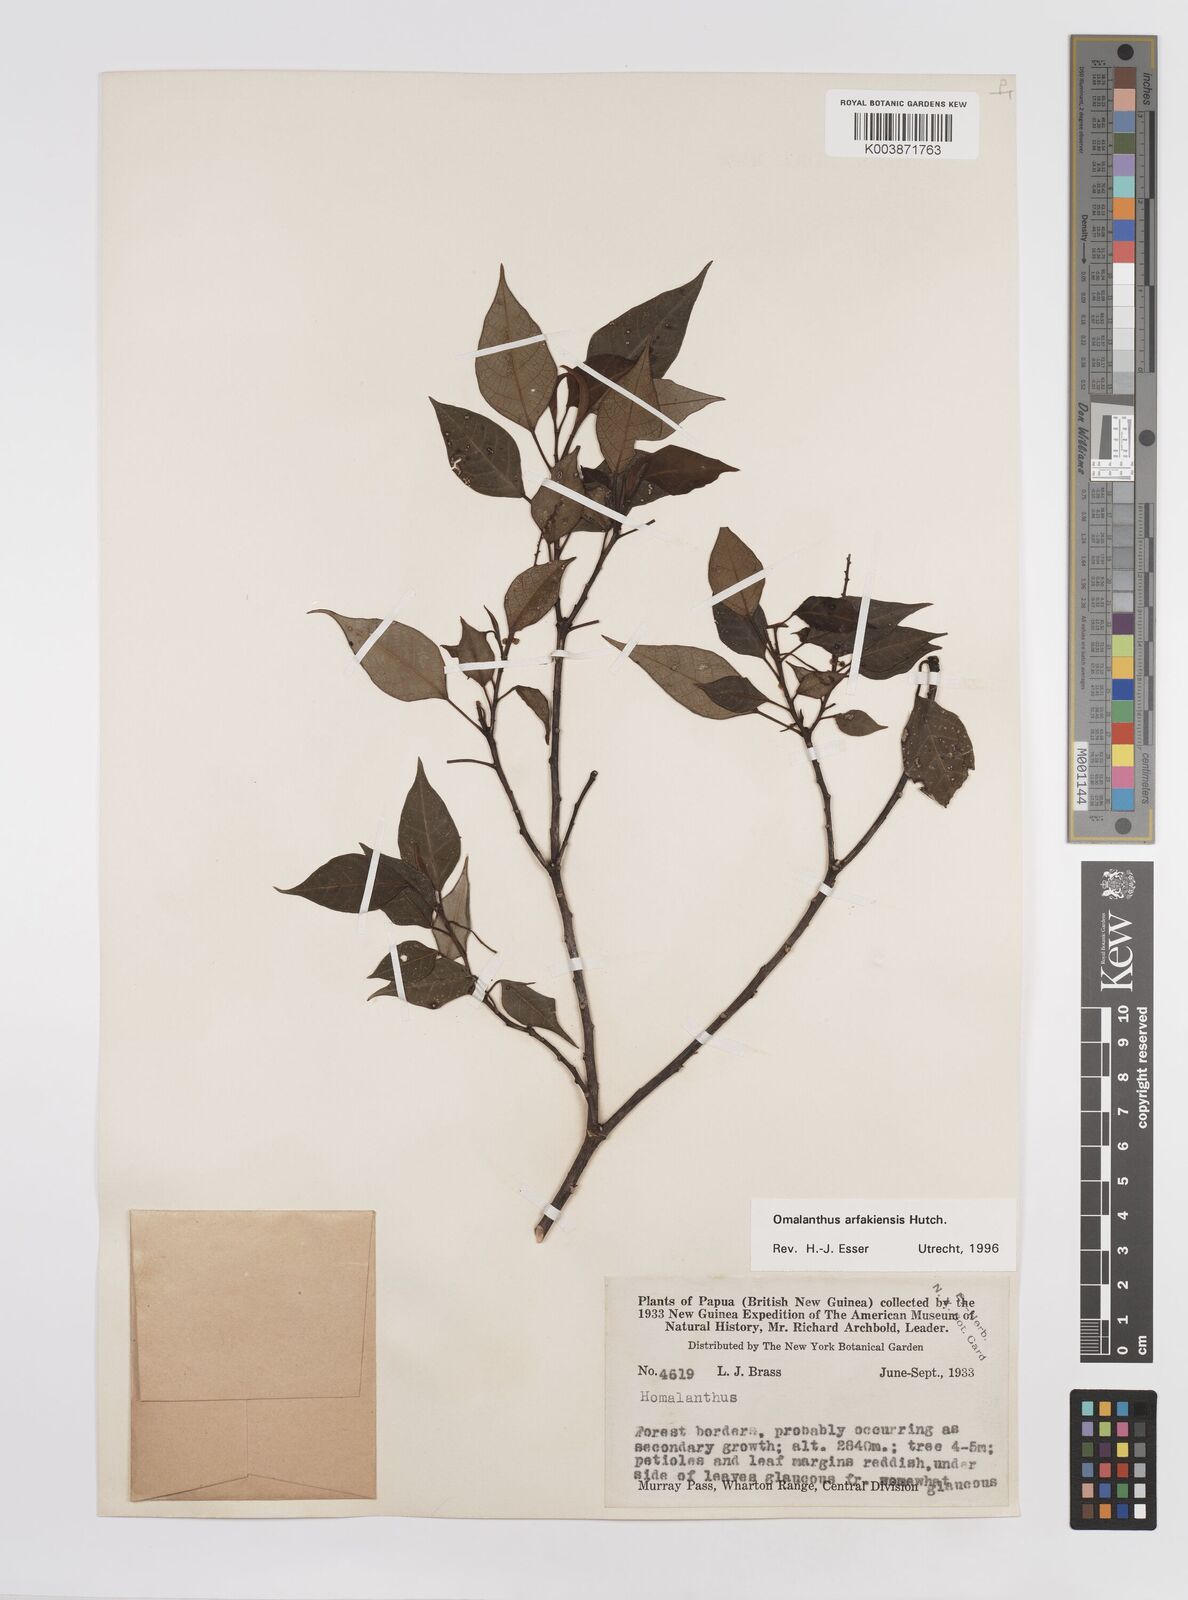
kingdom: Plantae
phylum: Tracheophyta
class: Magnoliopsida
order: Malpighiales
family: Euphorbiaceae
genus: Homalanthus
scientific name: Homalanthus arfakiensis
